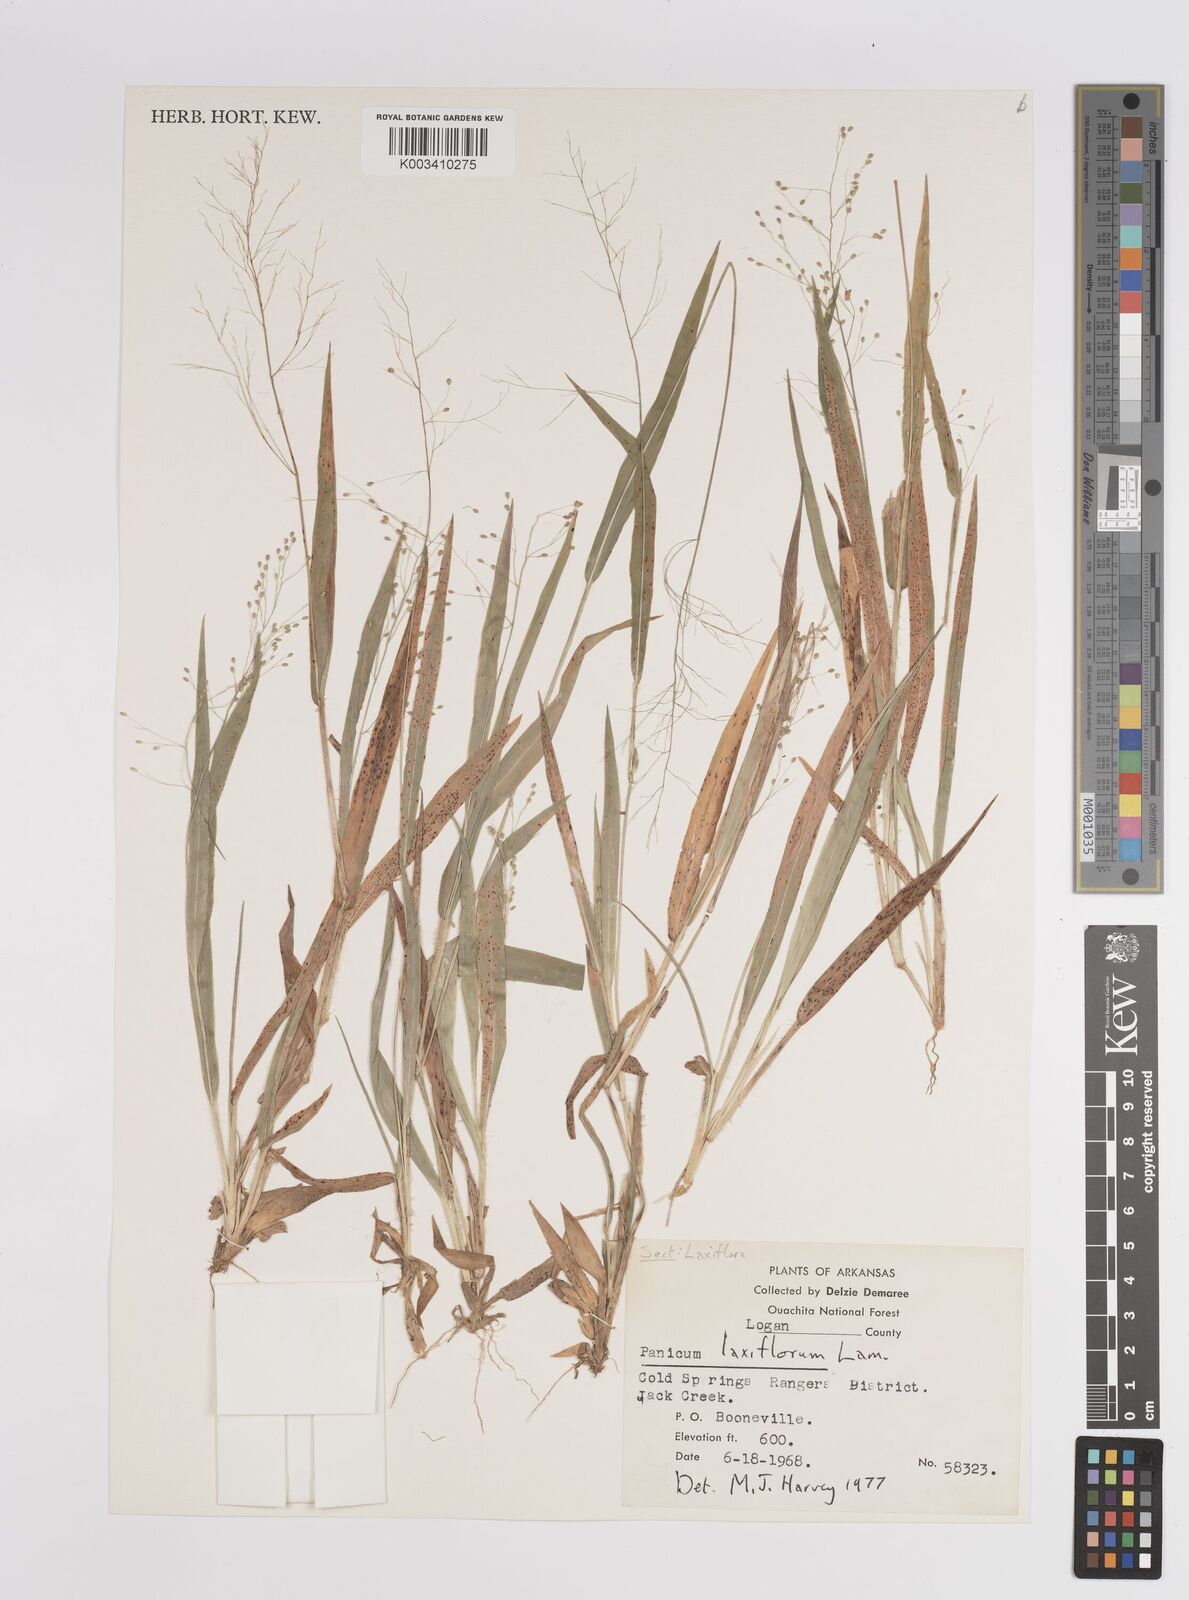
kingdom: Plantae
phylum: Tracheophyta
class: Liliopsida
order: Poales
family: Poaceae
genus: Dichanthelium
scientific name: Dichanthelium laxiflorum
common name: Soft-tuft panic grass
